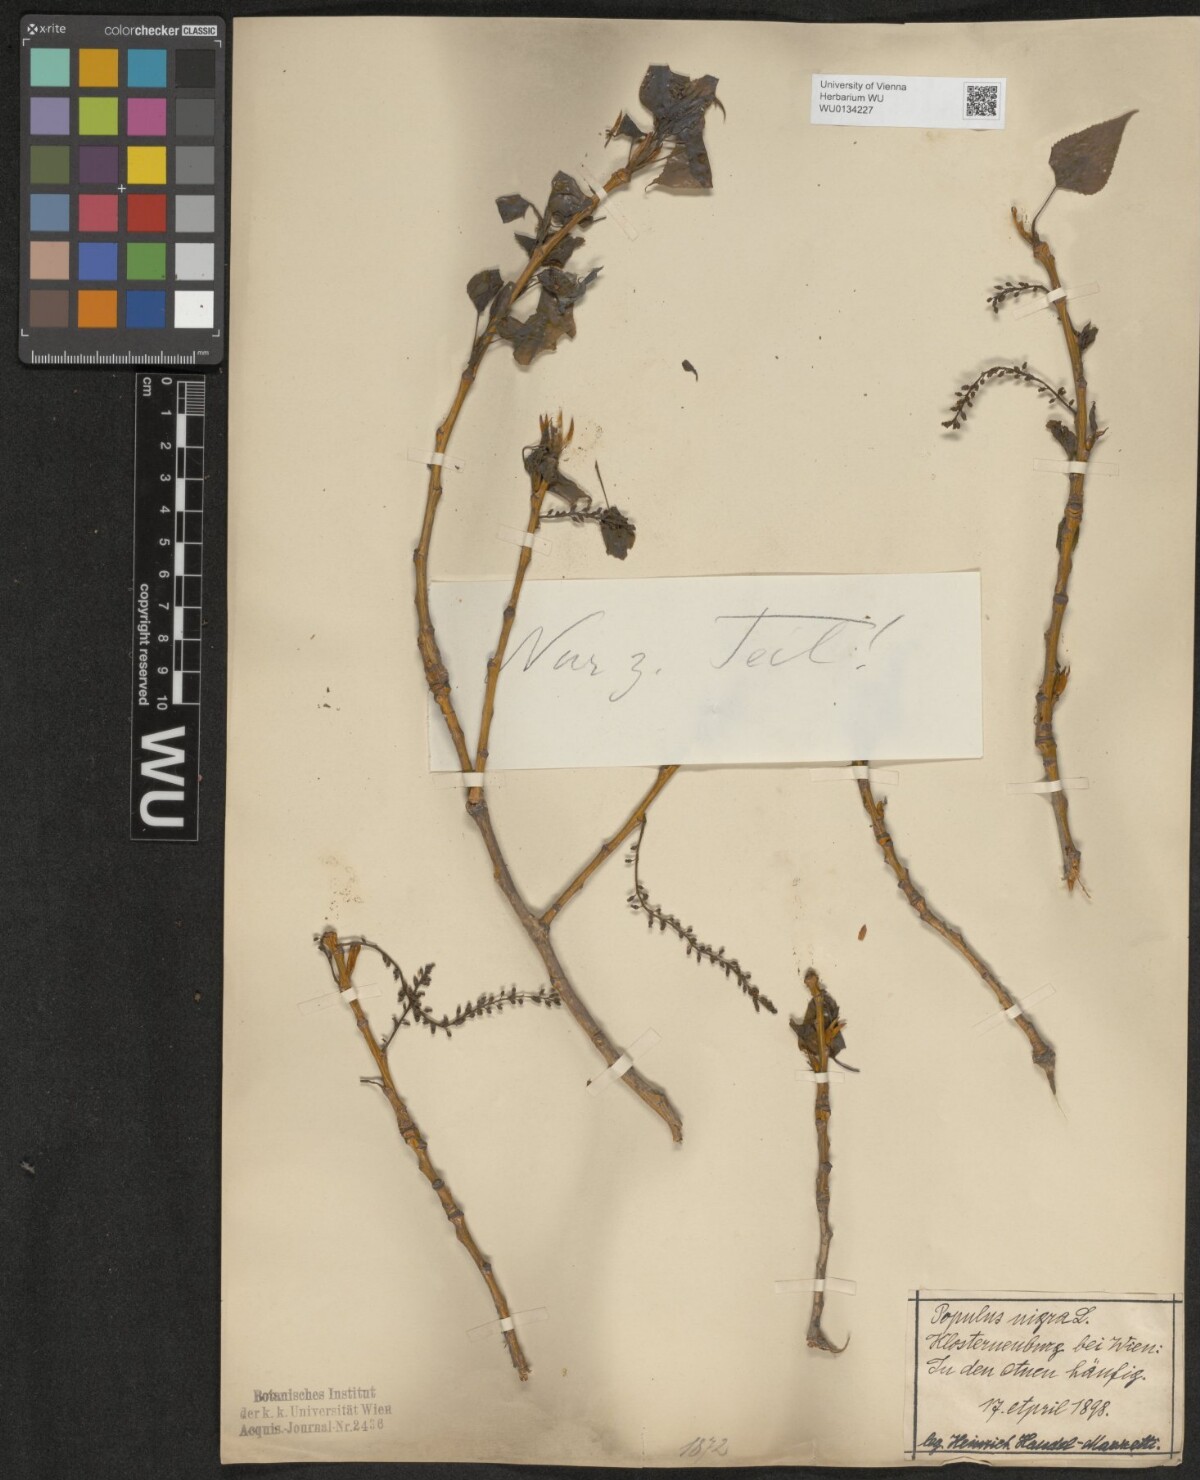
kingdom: Plantae
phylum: Tracheophyta
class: Magnoliopsida
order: Malpighiales
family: Salicaceae
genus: Populus
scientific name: Populus nigra
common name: Black poplar
